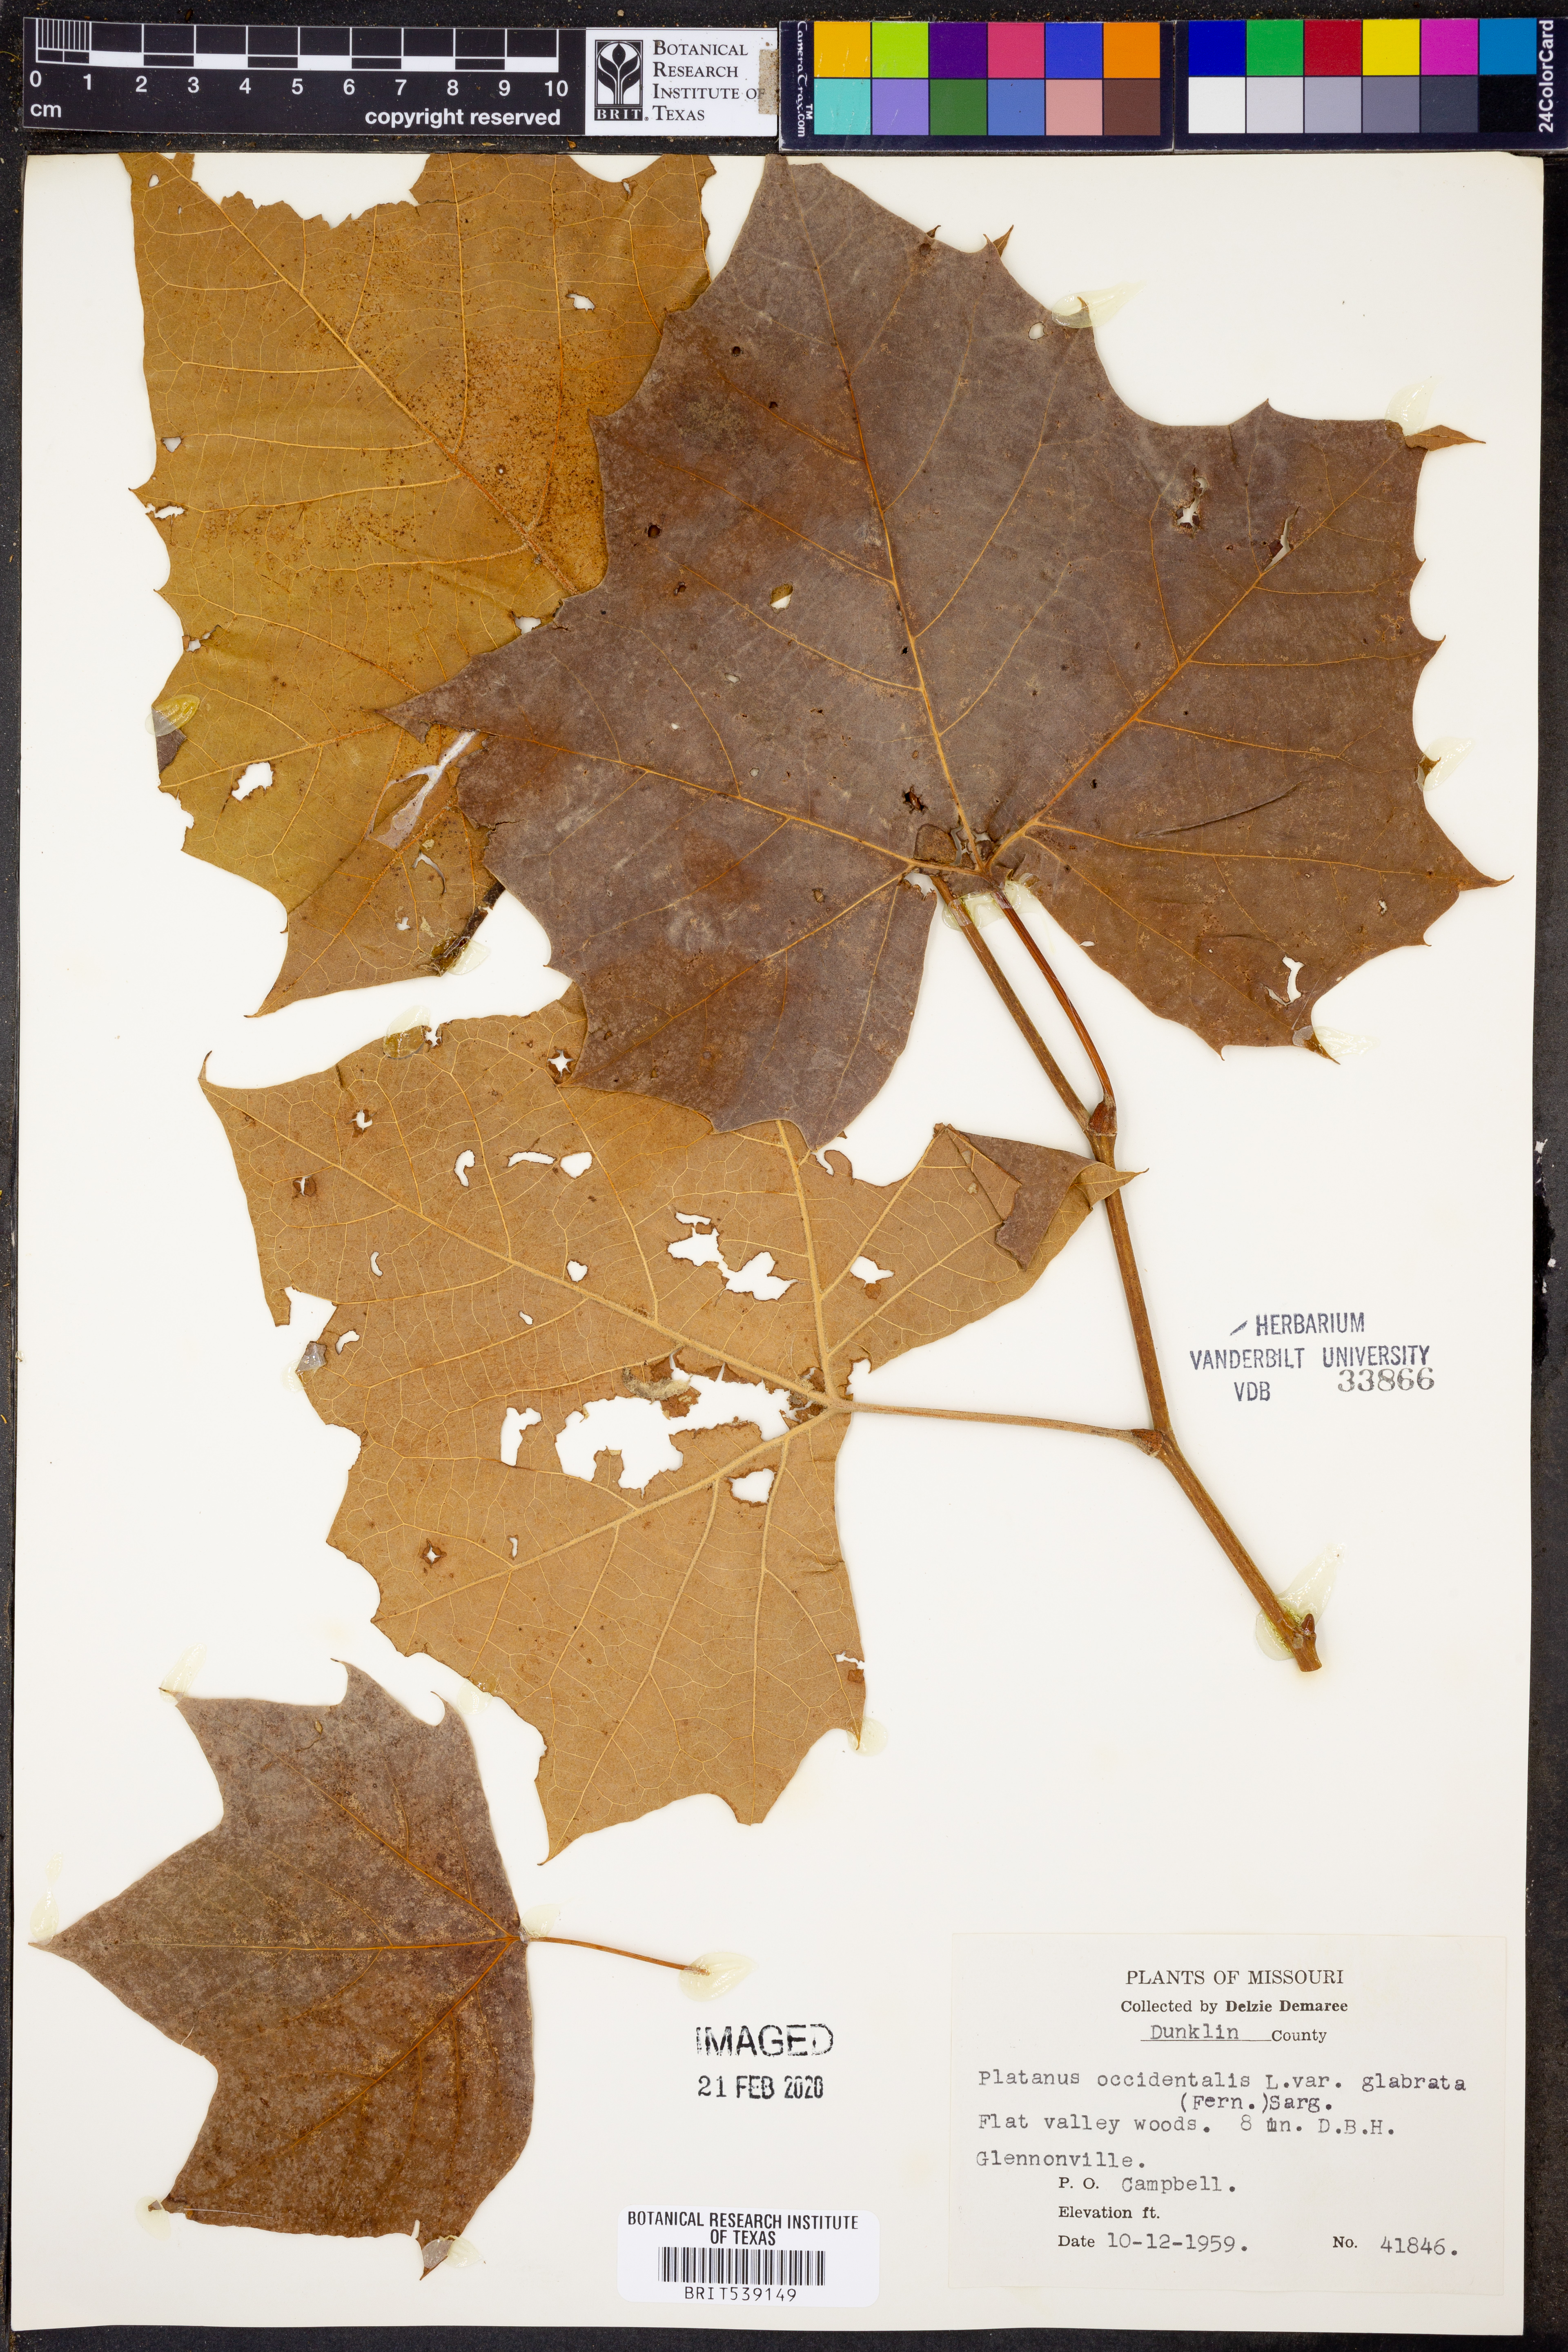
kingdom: Plantae
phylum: Tracheophyta
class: Magnoliopsida
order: Proteales
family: Platanaceae
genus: Platanus
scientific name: Platanus occidentalis
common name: American sycamore
